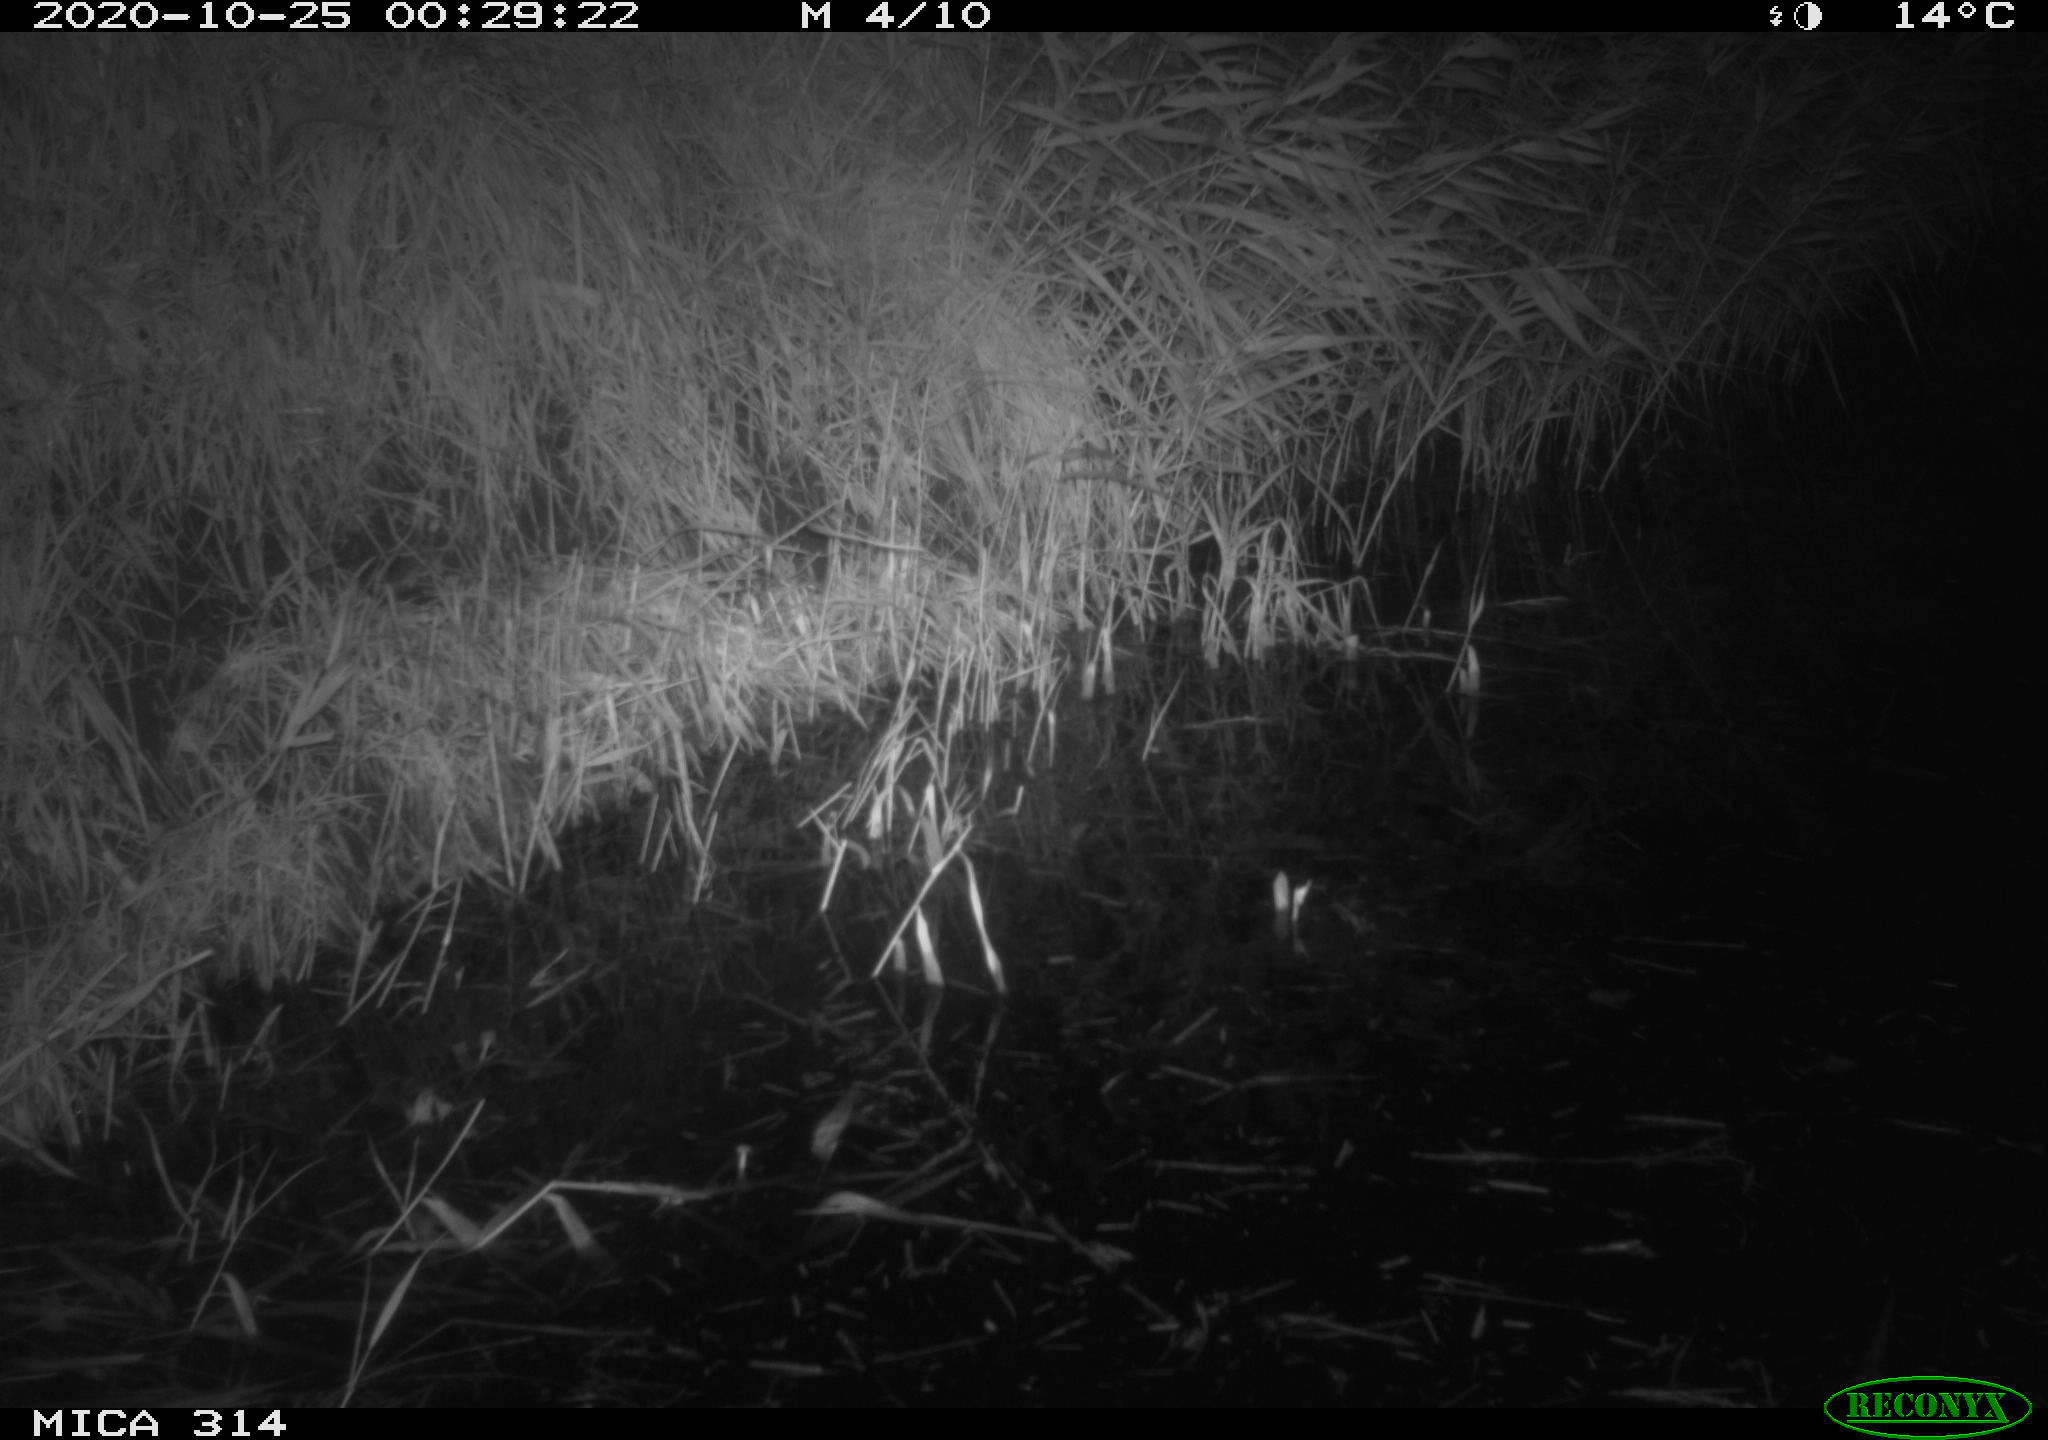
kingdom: Animalia
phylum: Chordata
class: Mammalia
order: Rodentia
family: Muridae
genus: Rattus
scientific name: Rattus norvegicus
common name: Brown rat
